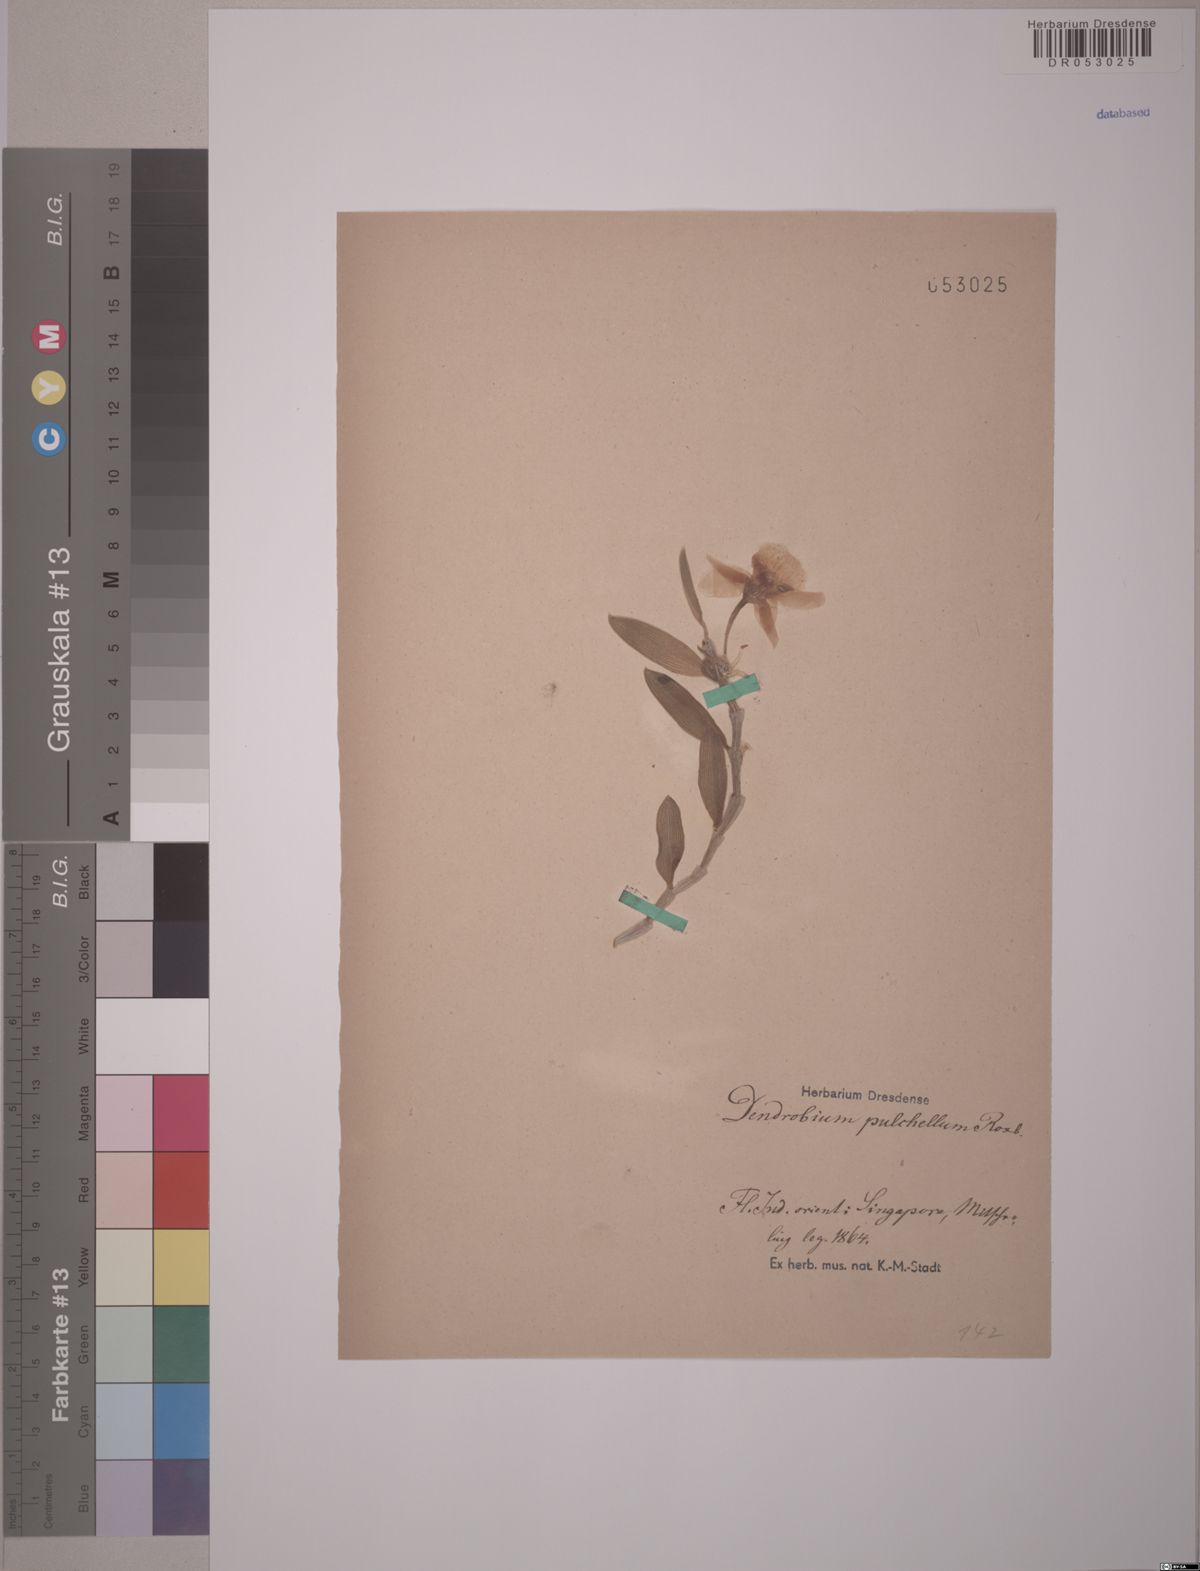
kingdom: Plantae
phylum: Tracheophyta
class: Liliopsida
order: Asparagales
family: Orchidaceae
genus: Dendrobium
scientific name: Dendrobium pulchellum
